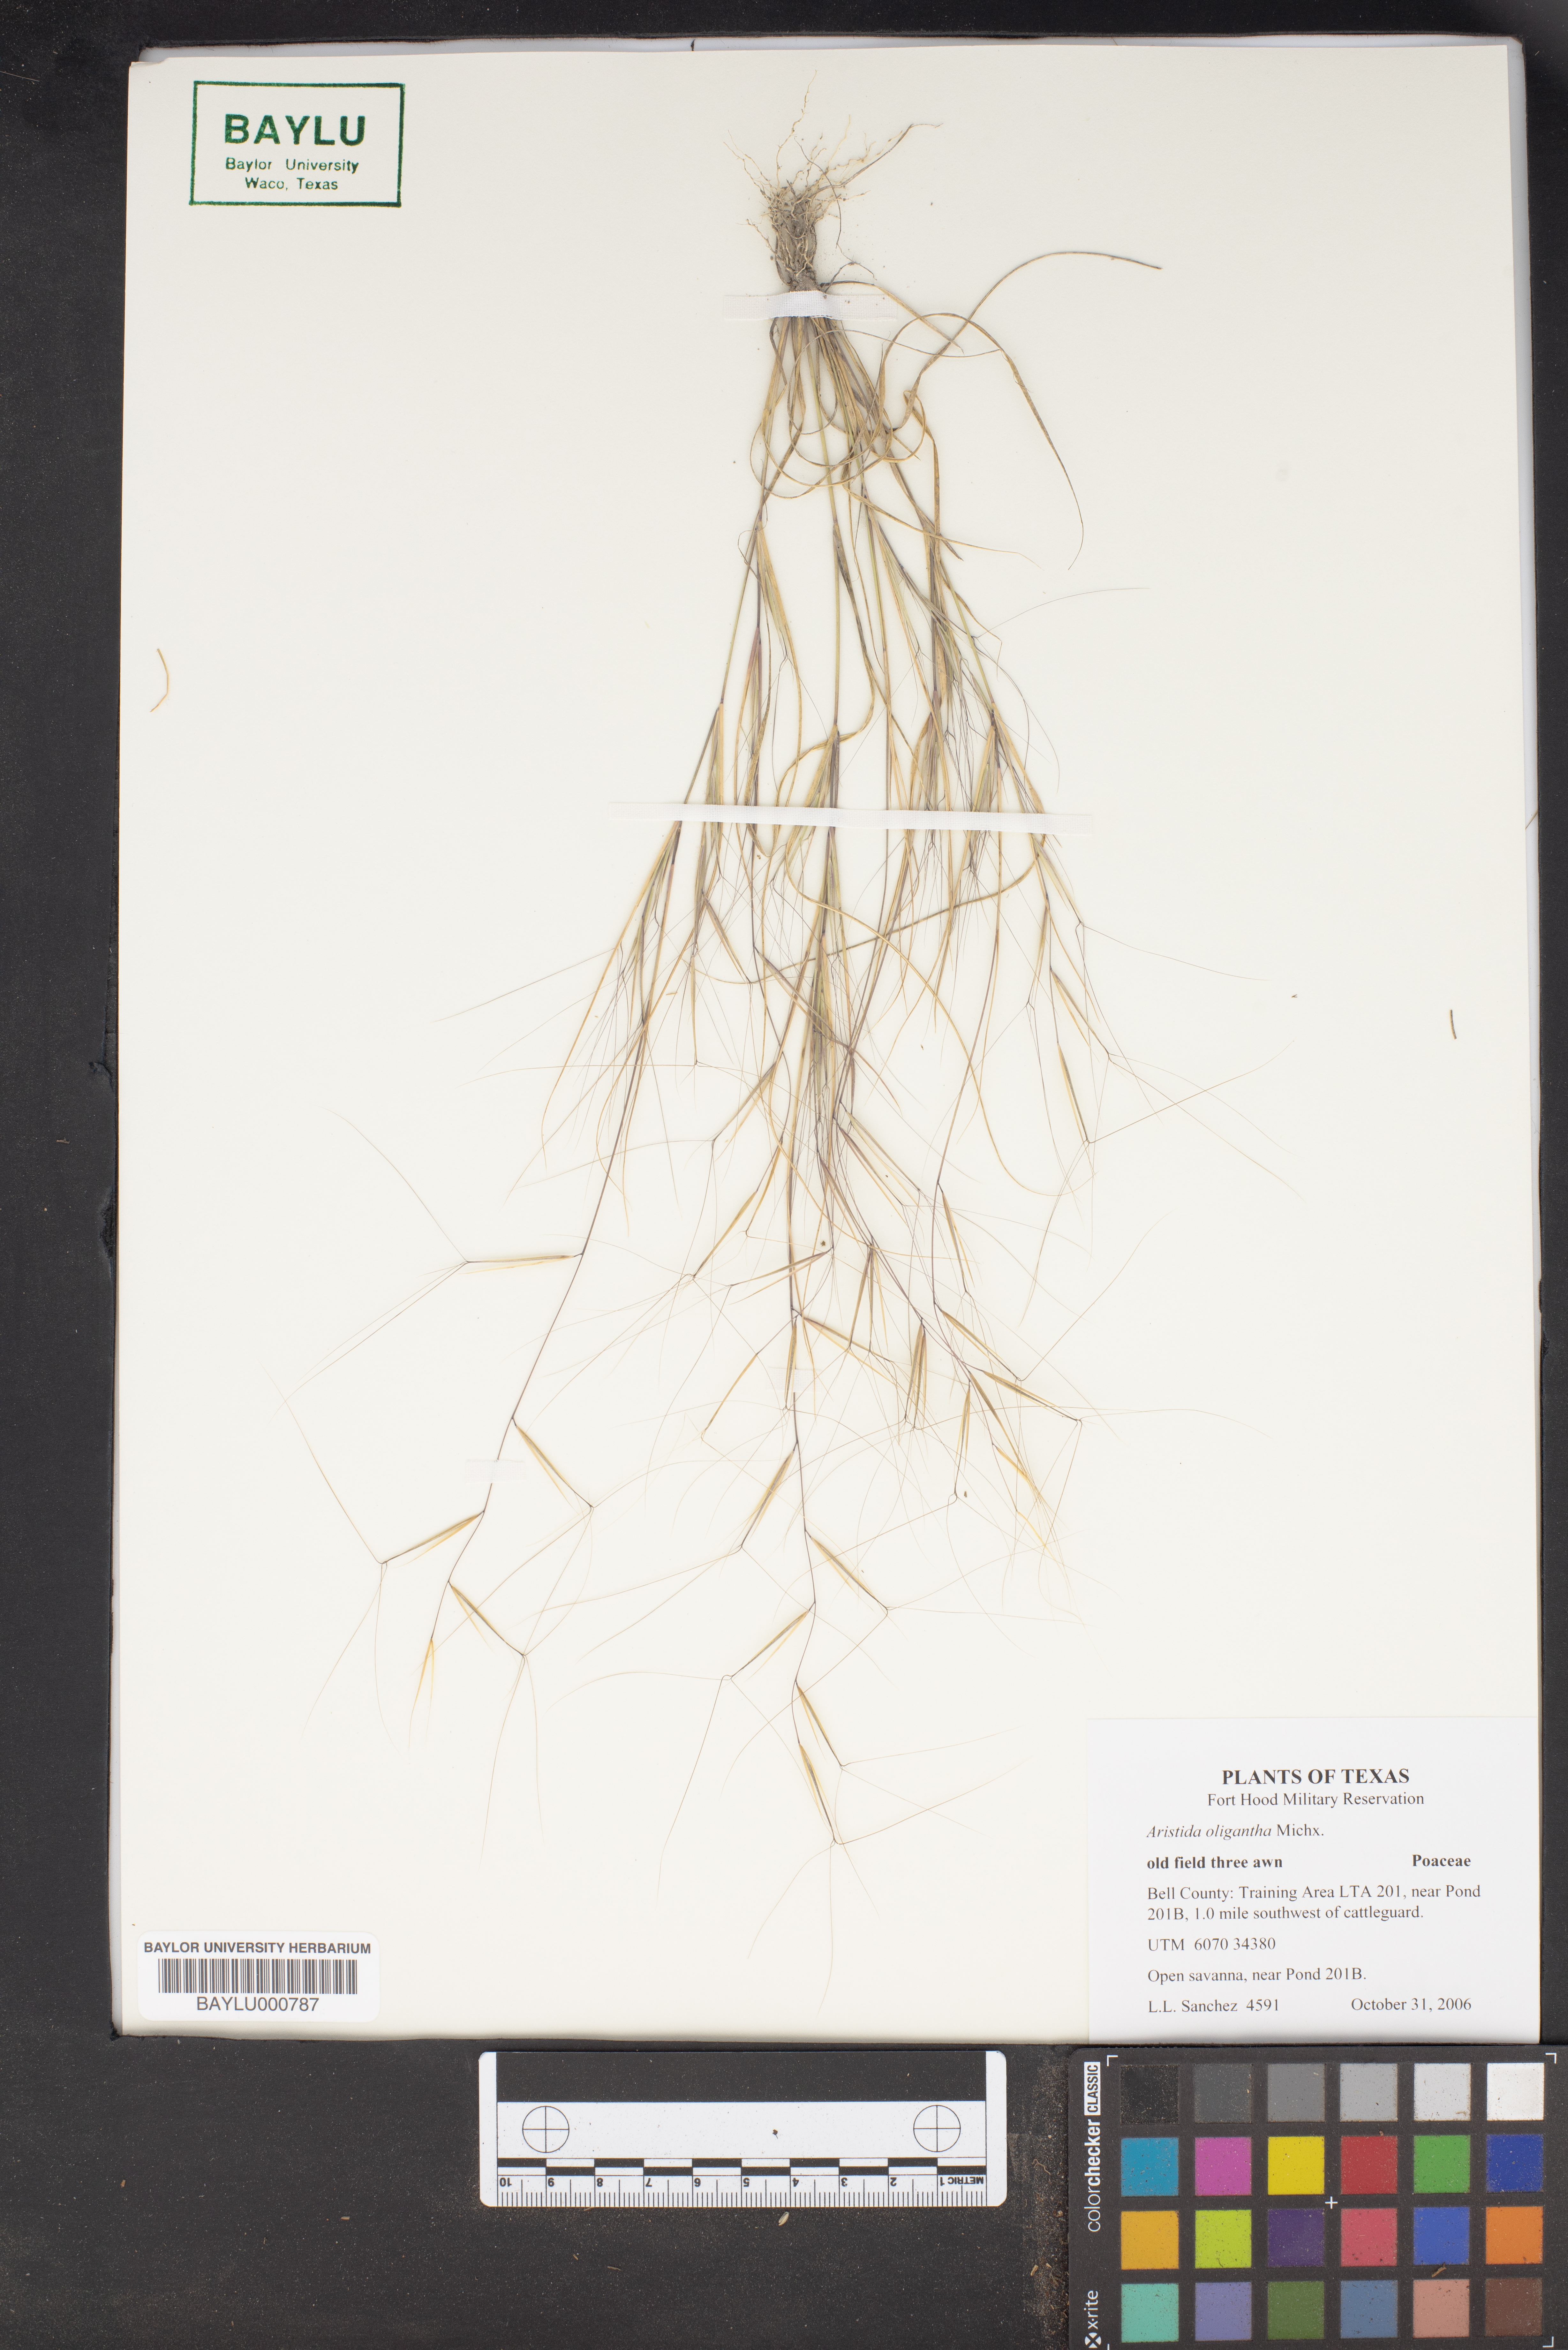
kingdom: Plantae
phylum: Tracheophyta
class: Liliopsida
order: Poales
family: Poaceae
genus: Aristida
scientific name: Aristida oligantha
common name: Few-flowered aristida
